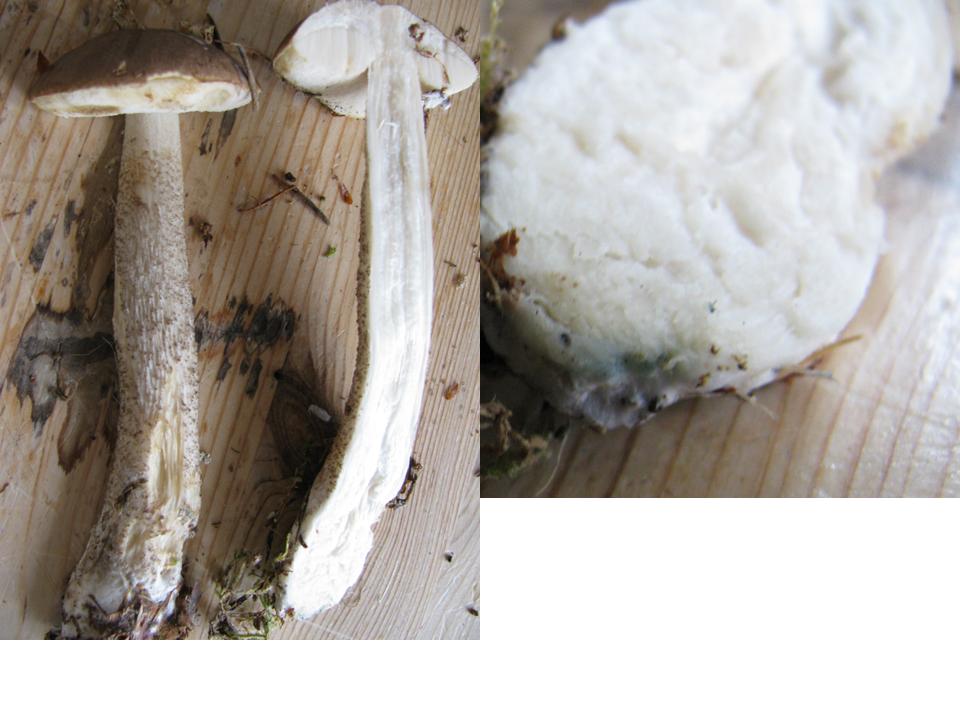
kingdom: Fungi
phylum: Basidiomycota
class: Agaricomycetes
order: Boletales
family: Boletaceae
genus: Leccinum
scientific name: Leccinum cyaneobasileucum
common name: almindelig skælrørhat
